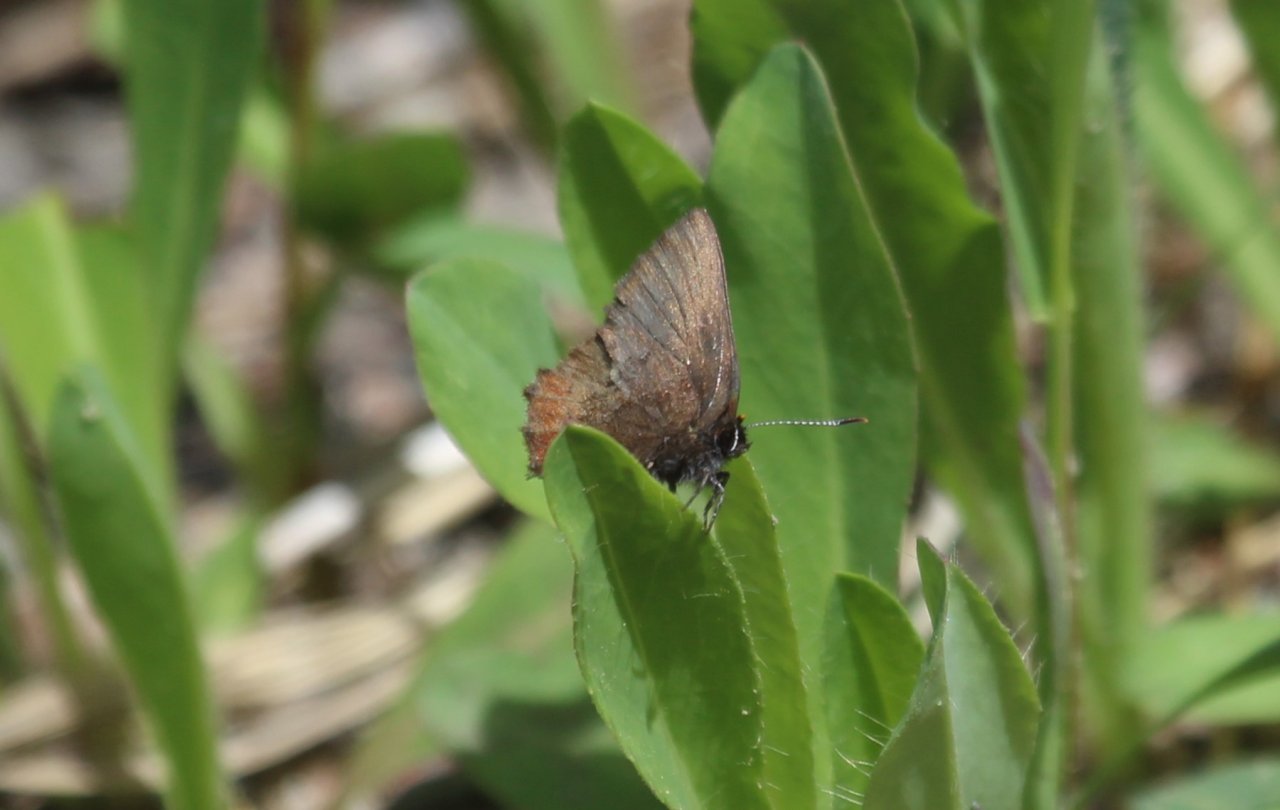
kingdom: Animalia
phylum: Arthropoda
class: Insecta
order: Lepidoptera
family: Lycaenidae
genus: Incisalia
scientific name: Incisalia irioides
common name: Brown Elfin
